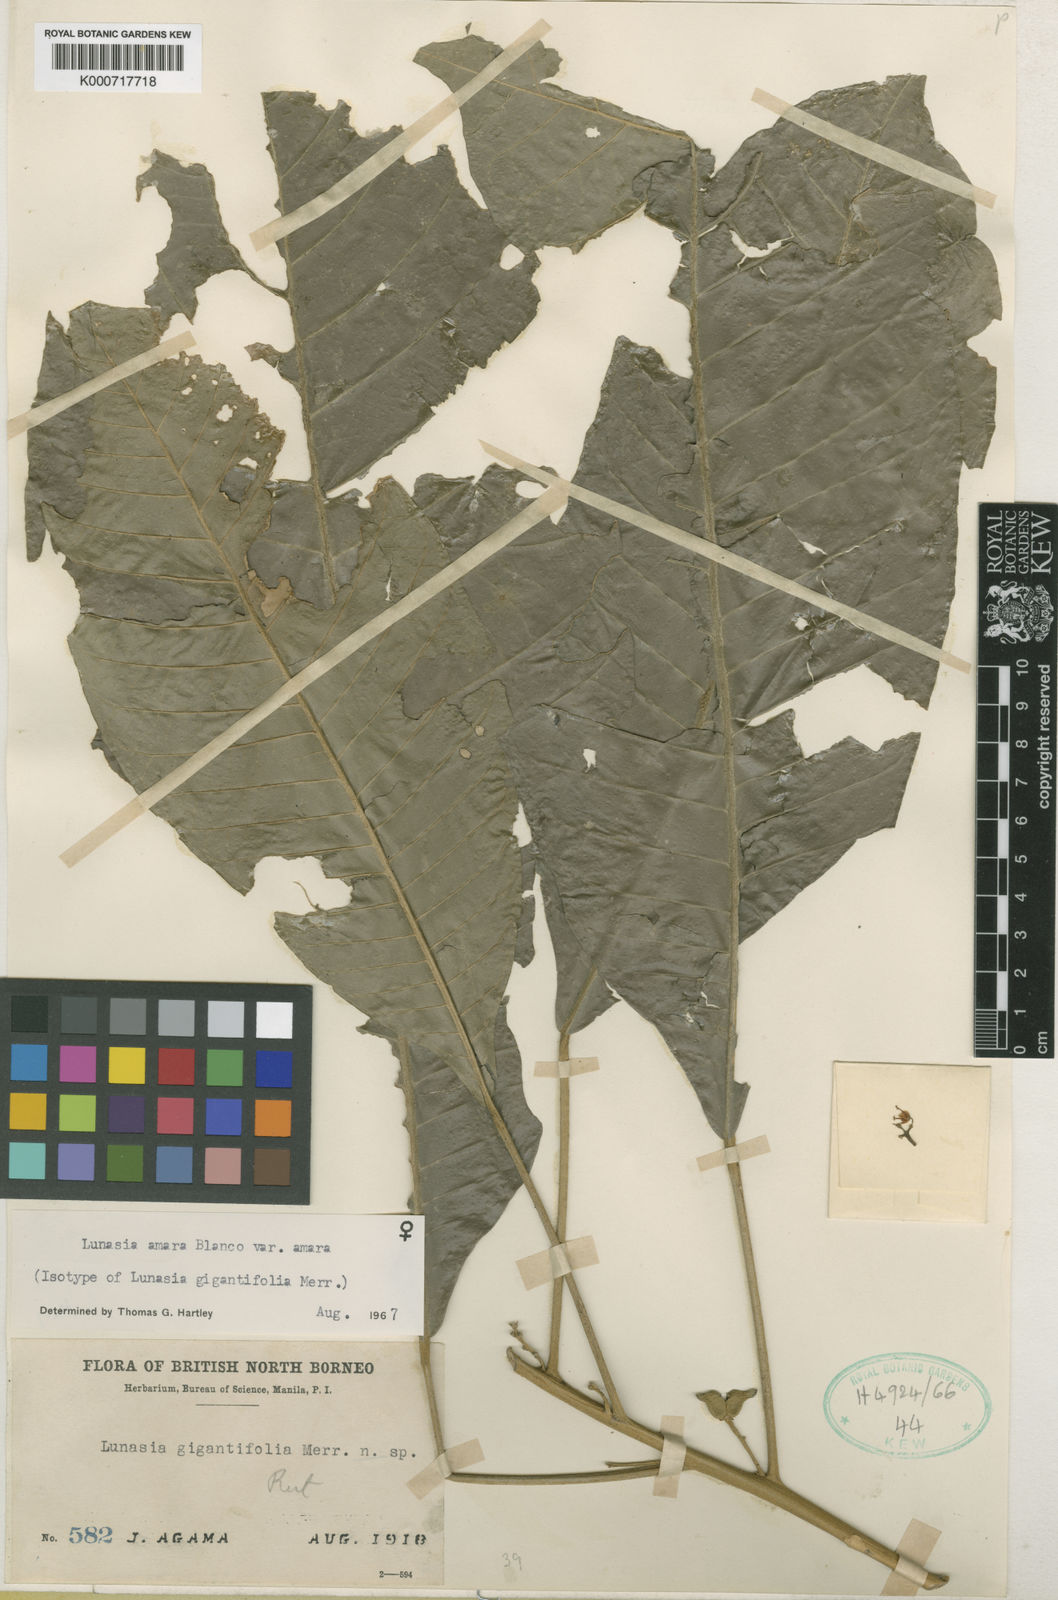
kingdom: Plantae
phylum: Tracheophyta
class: Magnoliopsida
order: Sapindales
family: Rutaceae
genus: Lunasia
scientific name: Lunasia amara
